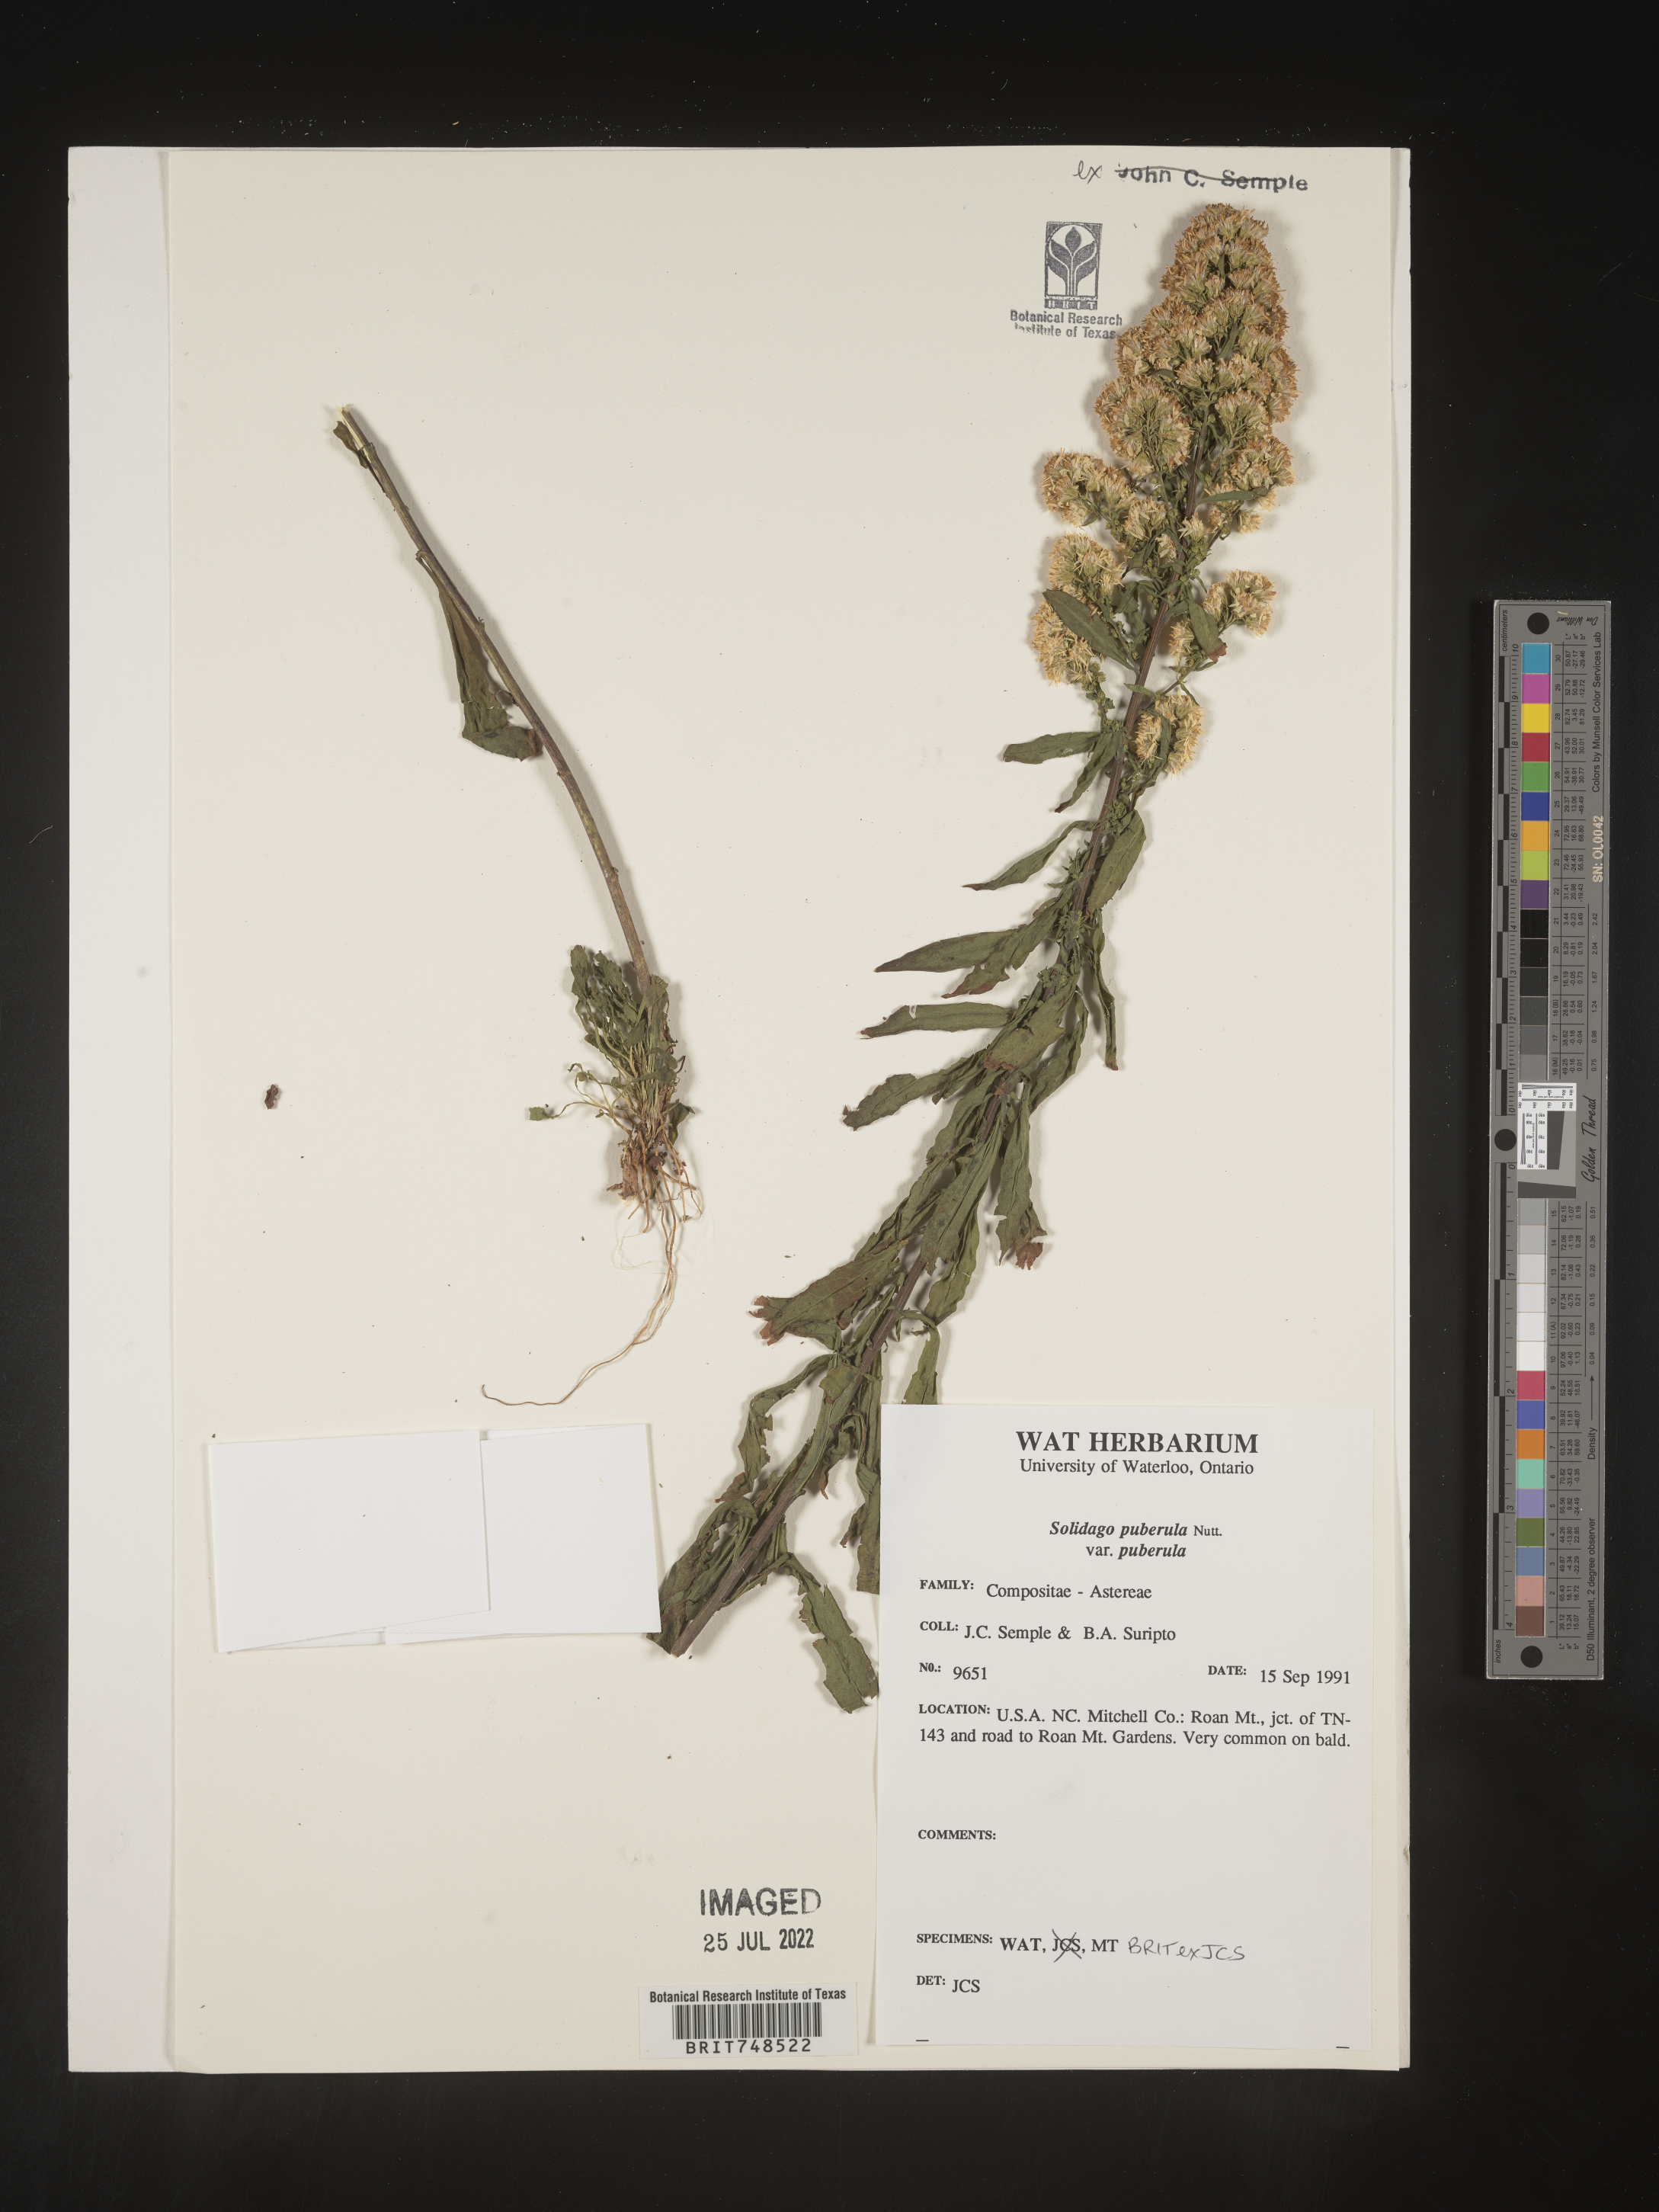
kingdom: Plantae
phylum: Tracheophyta
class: Magnoliopsida
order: Asterales
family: Asteraceae
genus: Solidago
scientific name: Solidago puberula
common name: Downy goldenrod
